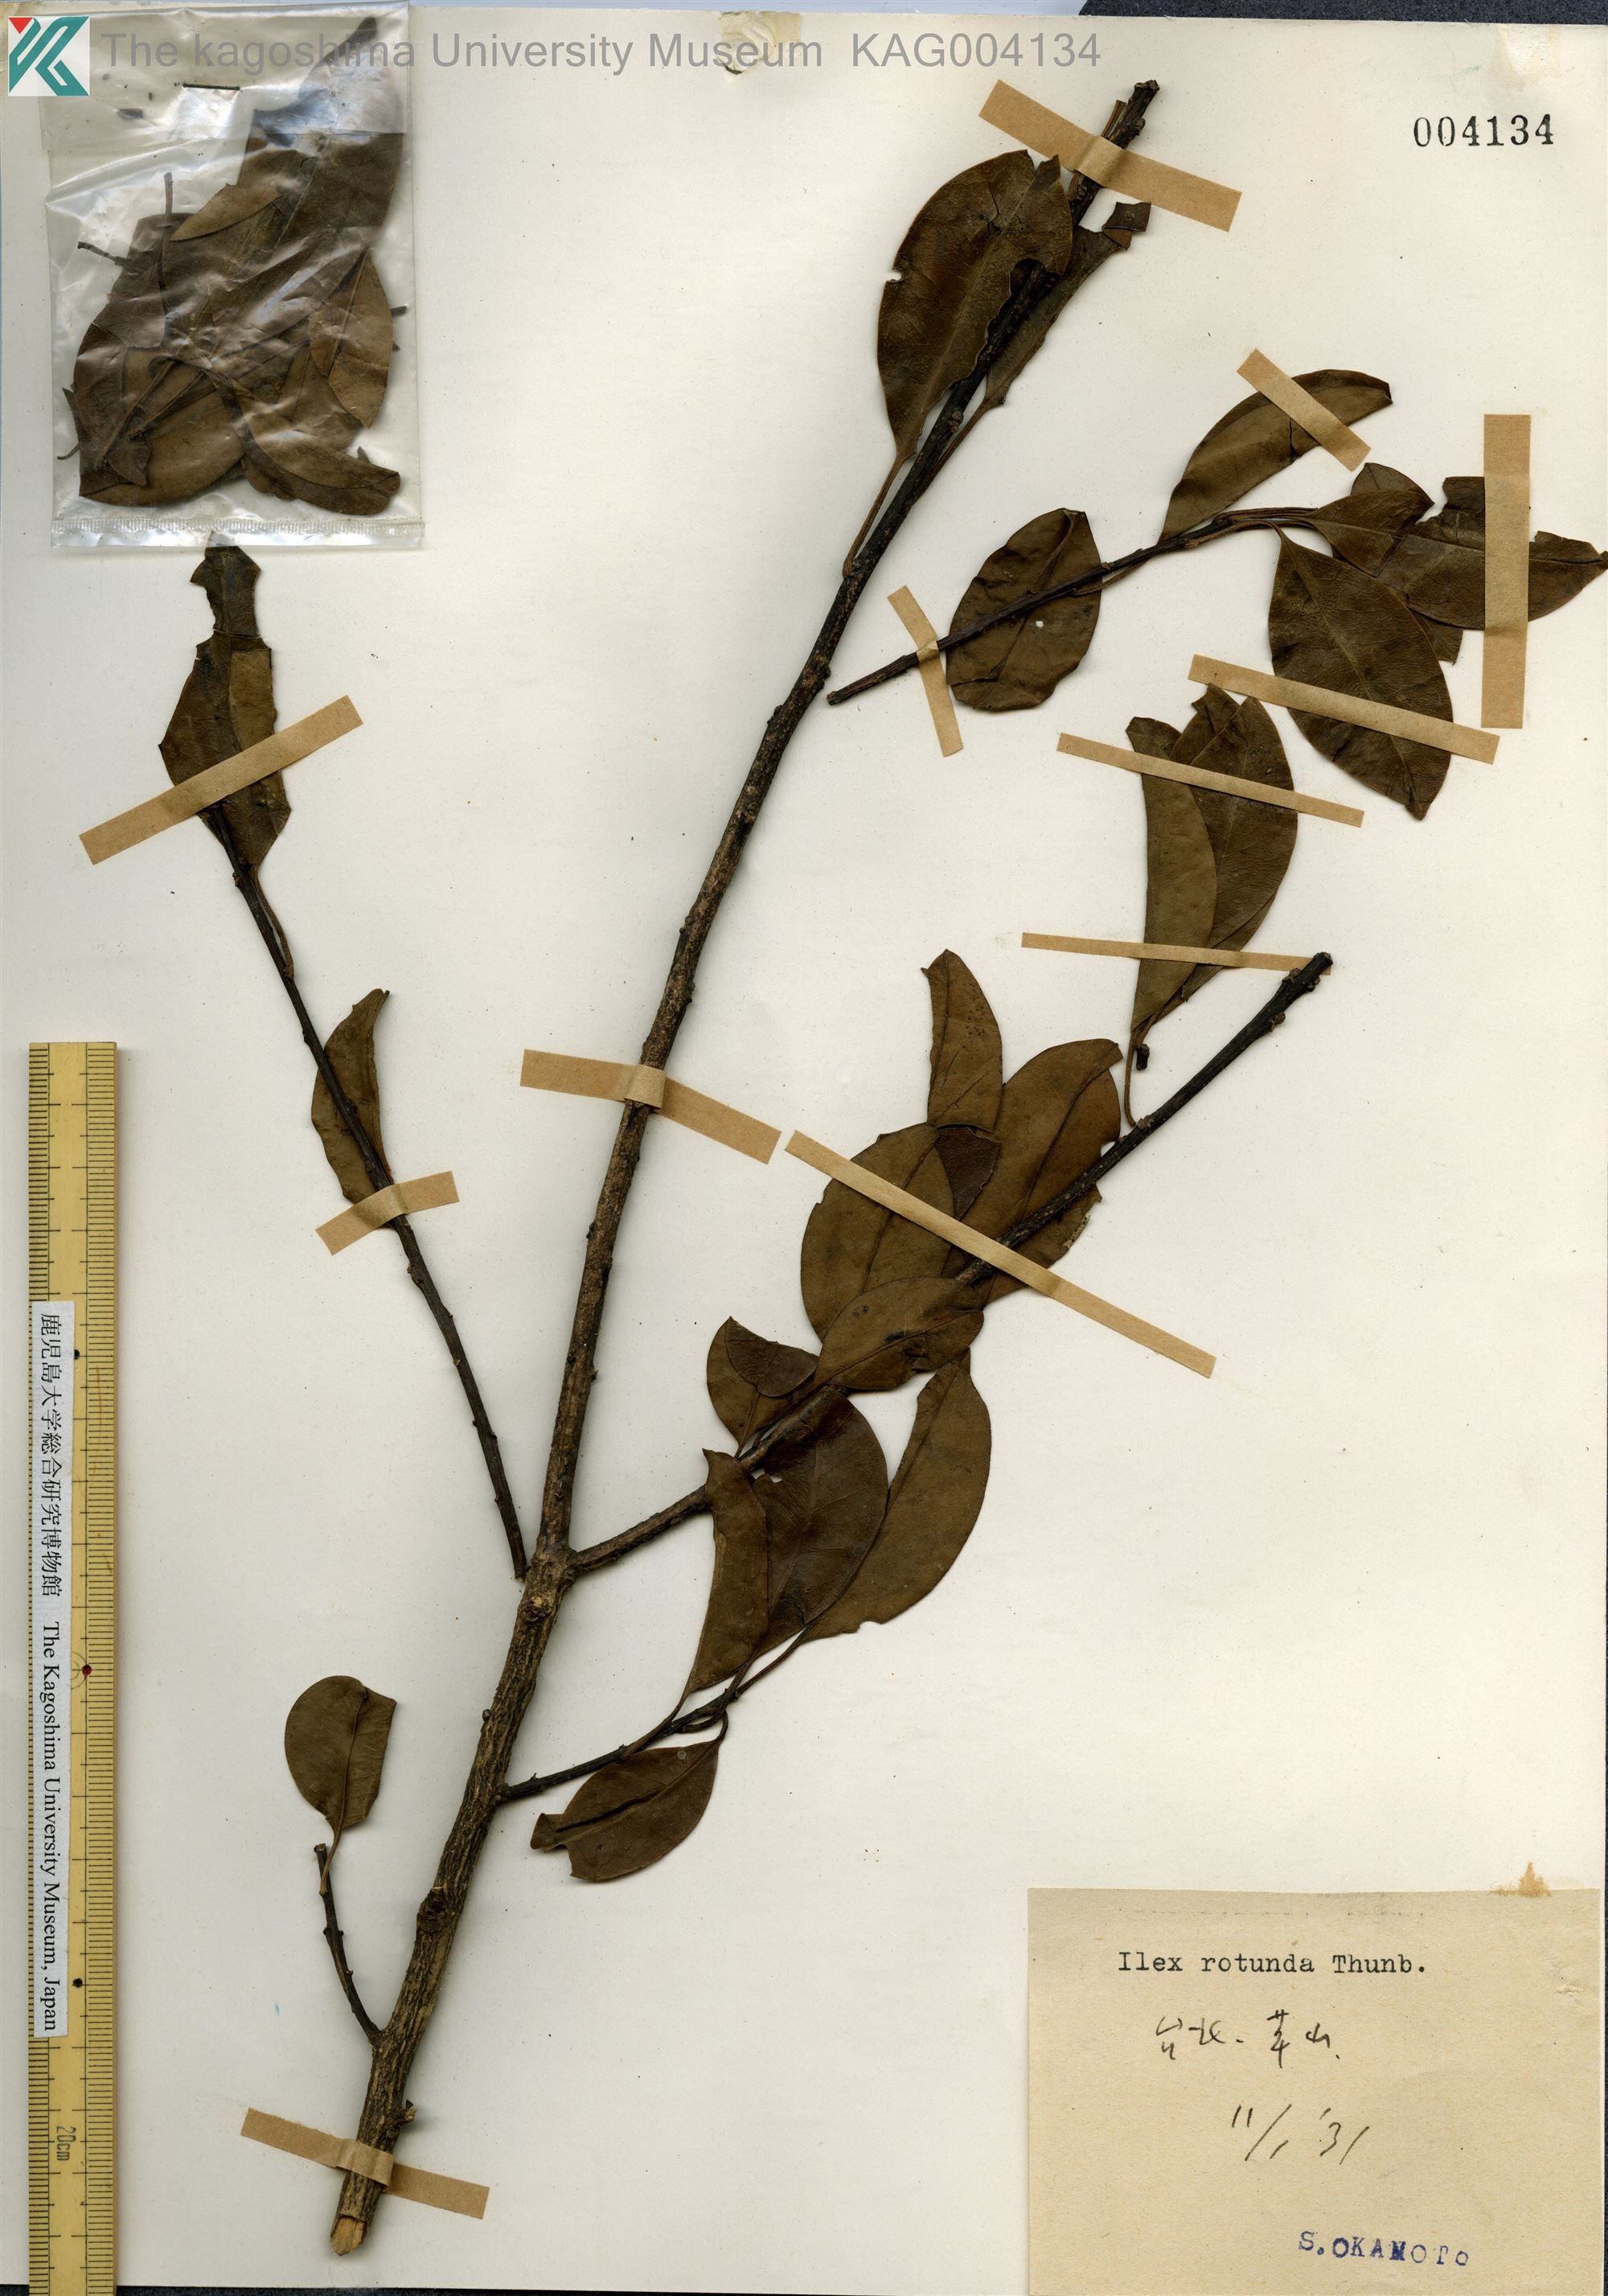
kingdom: Plantae
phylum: Tracheophyta
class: Magnoliopsida
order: Aquifoliales
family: Aquifoliaceae
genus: Ilex
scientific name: Ilex rotunda
